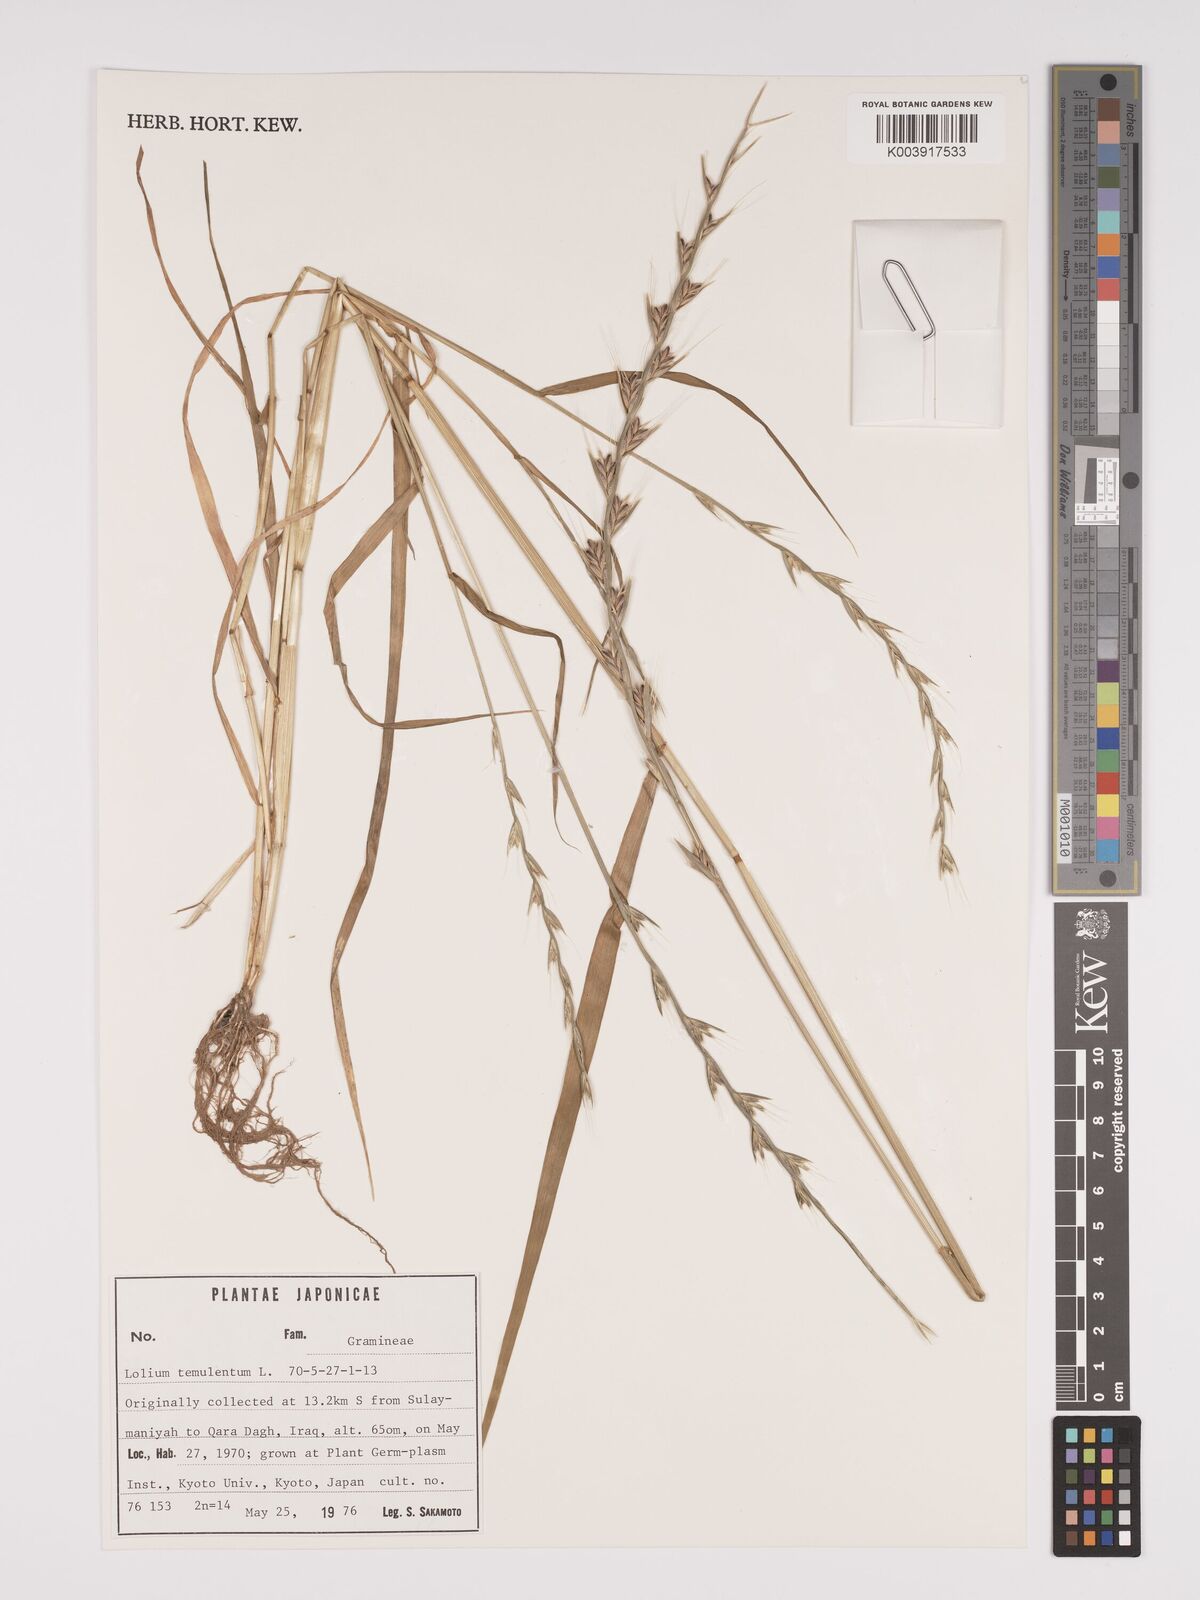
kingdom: Plantae
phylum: Tracheophyta
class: Liliopsida
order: Poales
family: Poaceae
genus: Lolium
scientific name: Lolium temulentum
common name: Darnel
